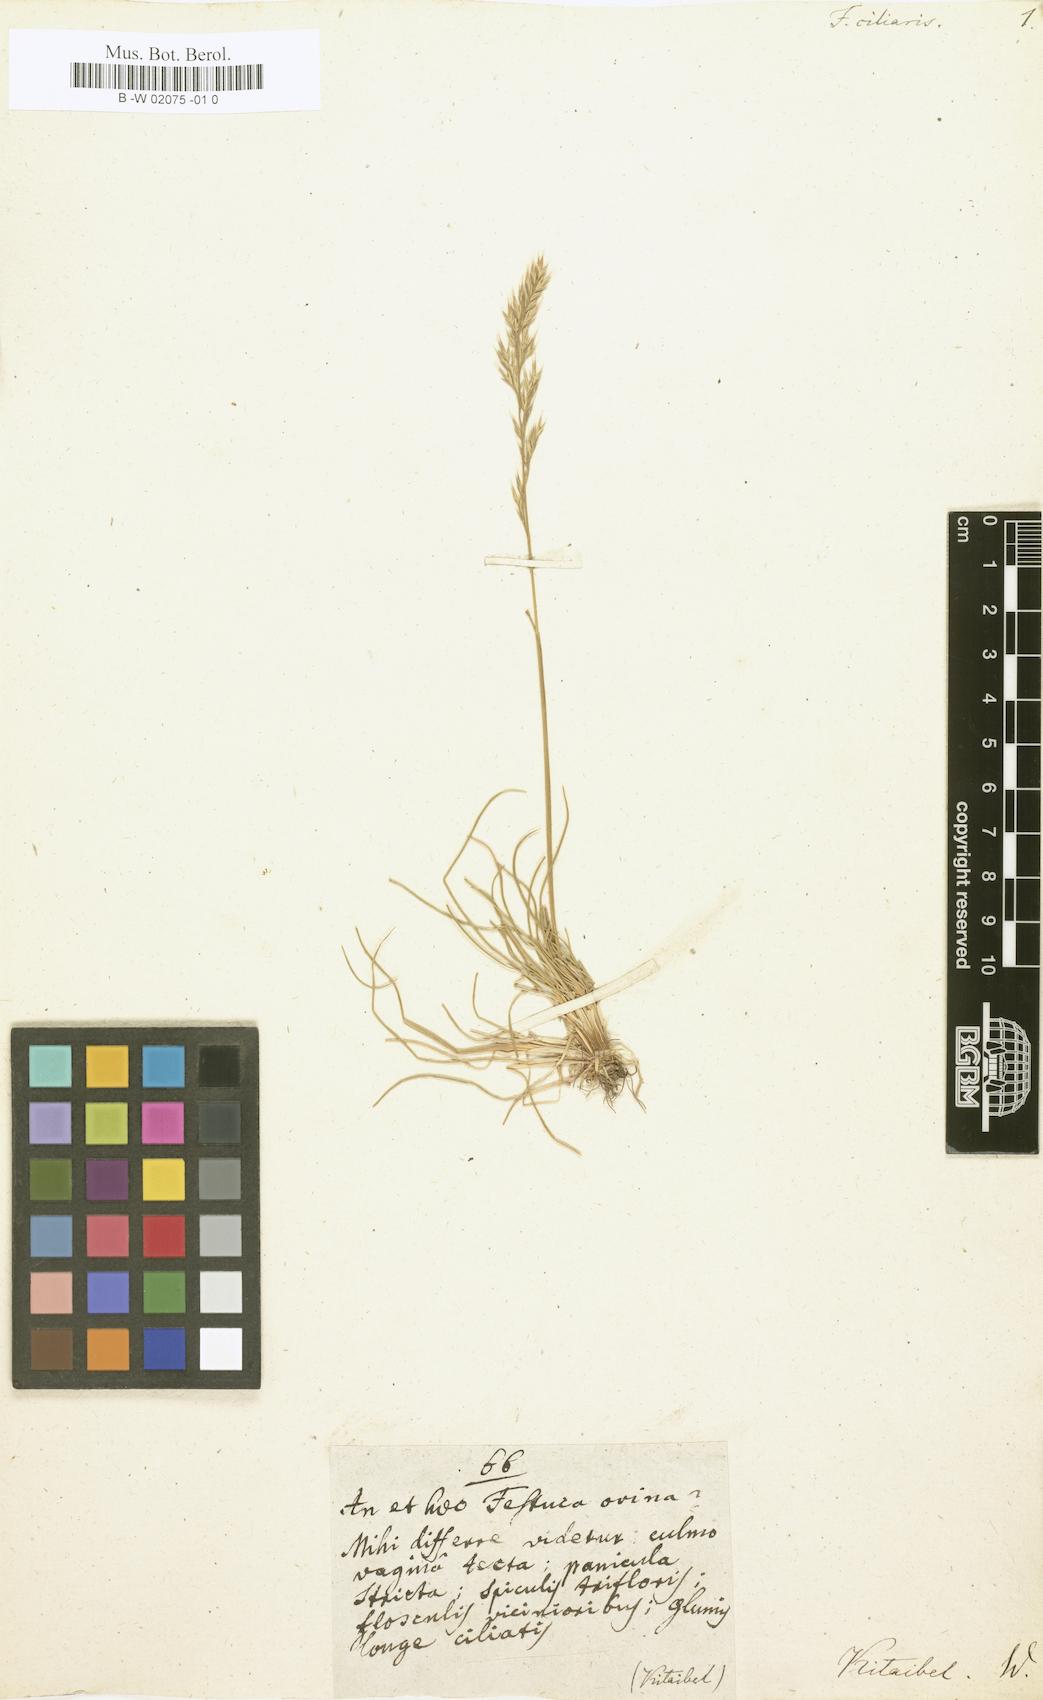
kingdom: Plantae
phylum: Tracheophyta
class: Liliopsida
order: Poales
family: Poaceae
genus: Centotheca
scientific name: Centotheca lappacea
